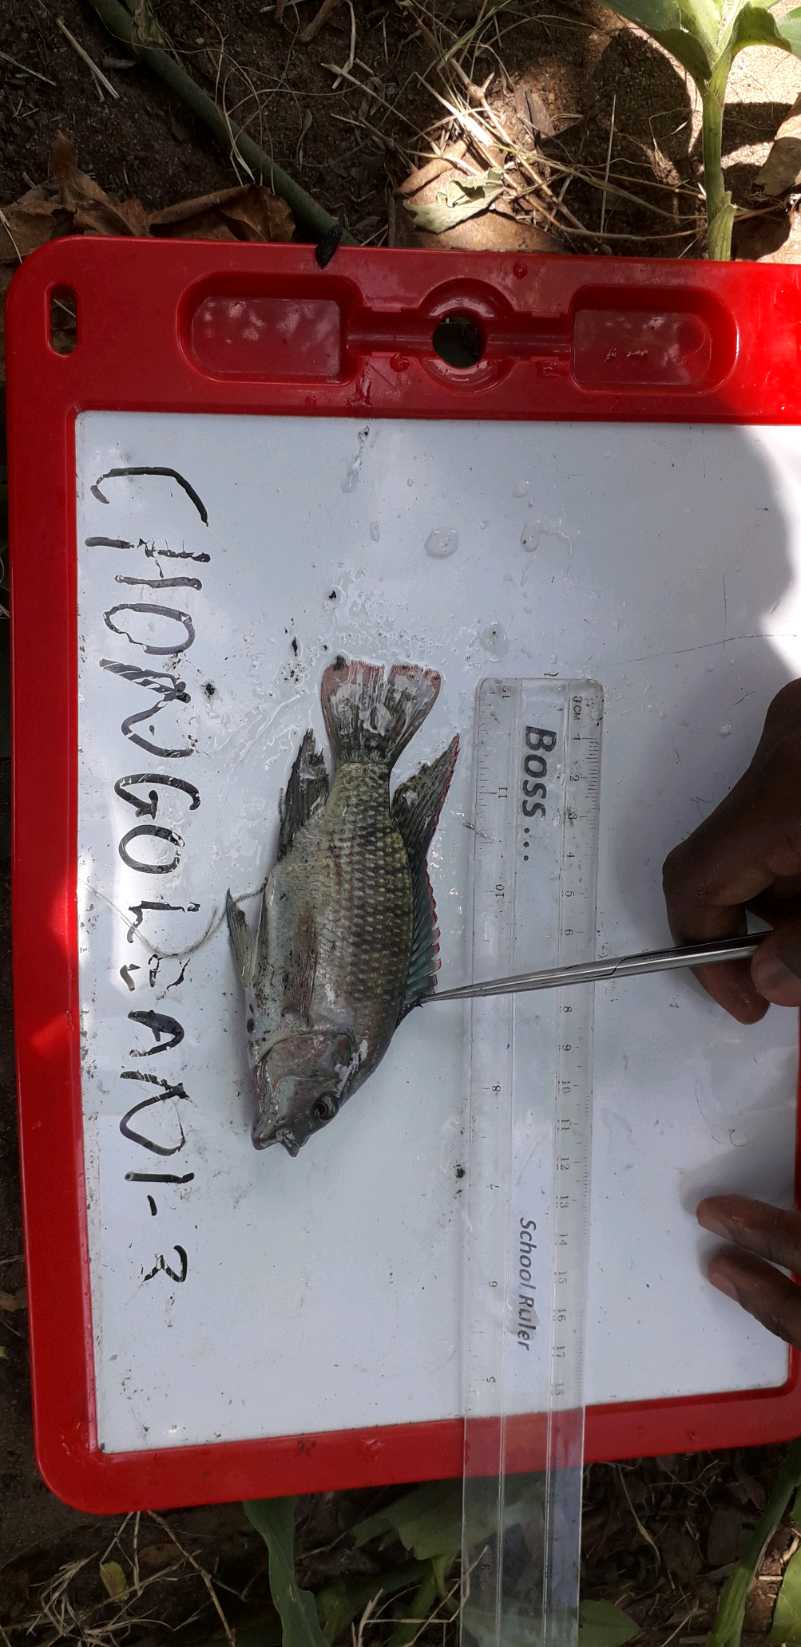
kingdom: Animalia
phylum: Chordata
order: Perciformes
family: Cichlidae
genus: Oreochromis
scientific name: Oreochromis urolepis
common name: Wami tilapia
